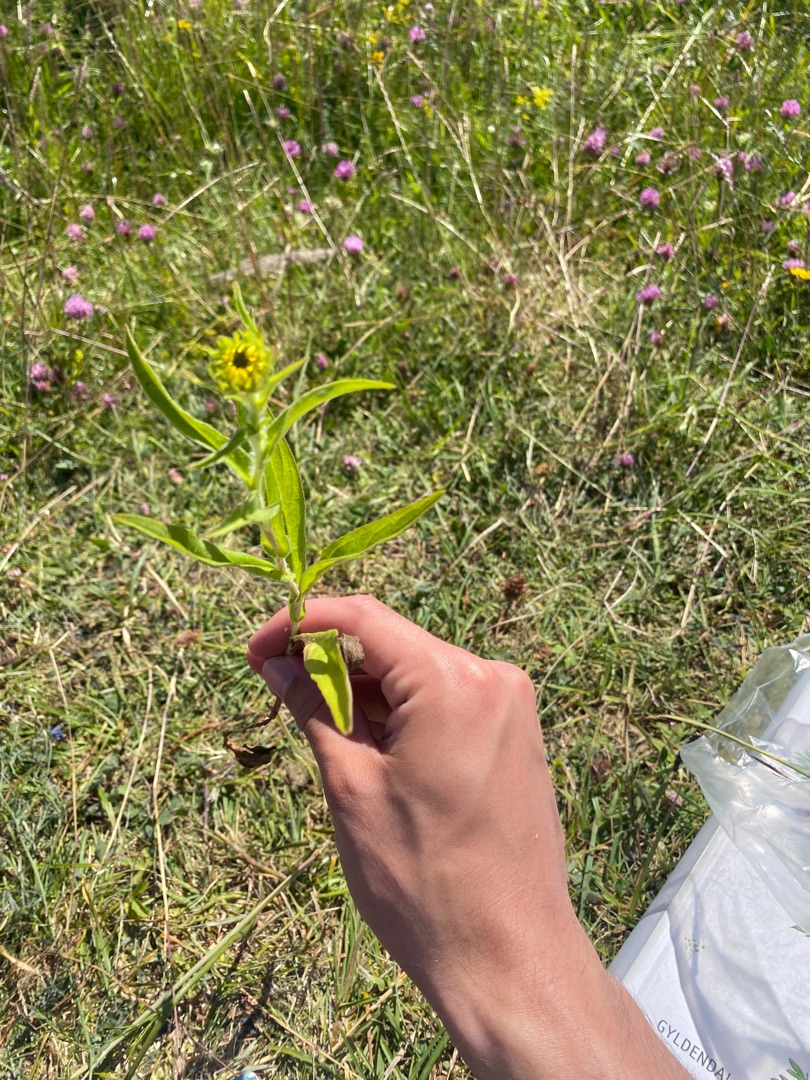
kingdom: Plantae
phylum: Tracheophyta
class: Magnoliopsida
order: Asterales
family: Asteraceae
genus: Pentanema
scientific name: Pentanema britannicum
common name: Soløje-alant
